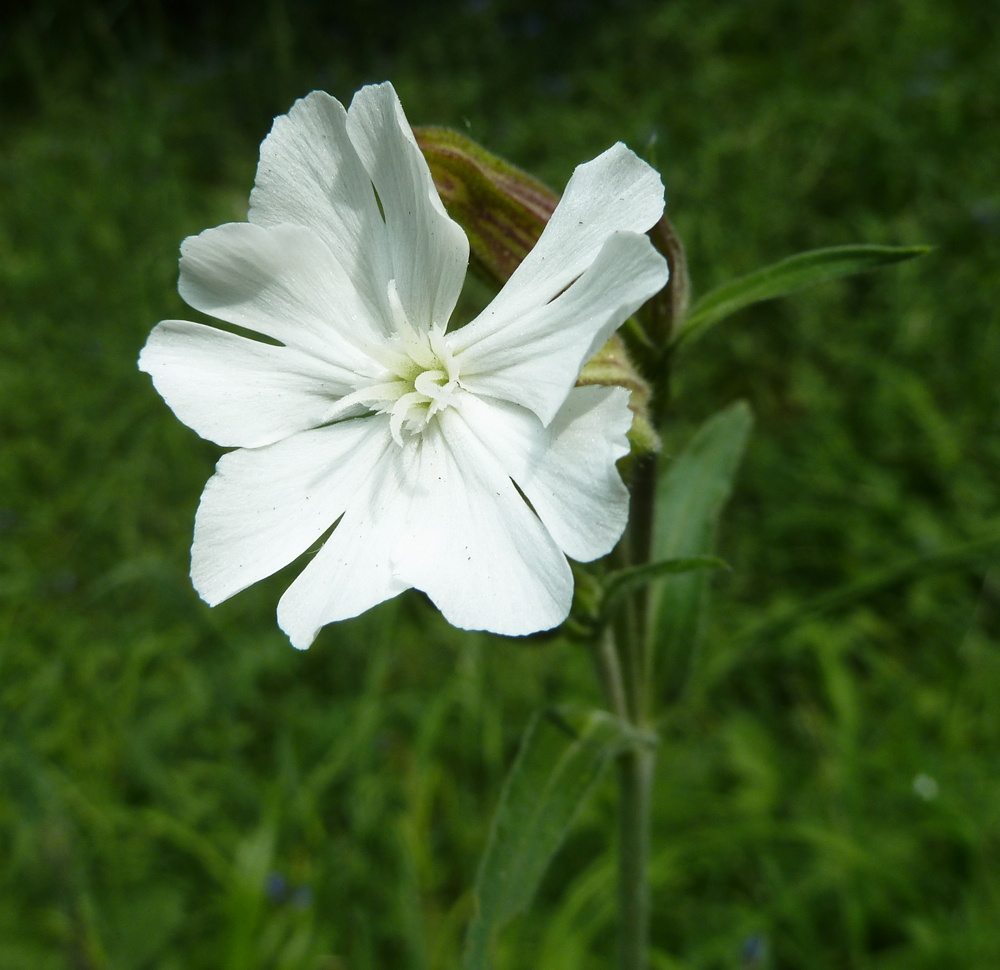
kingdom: Plantae
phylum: Tracheophyta
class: Magnoliopsida
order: Caryophyllales
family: Caryophyllaceae
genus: Silene
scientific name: Silene latifolia
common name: White campion
